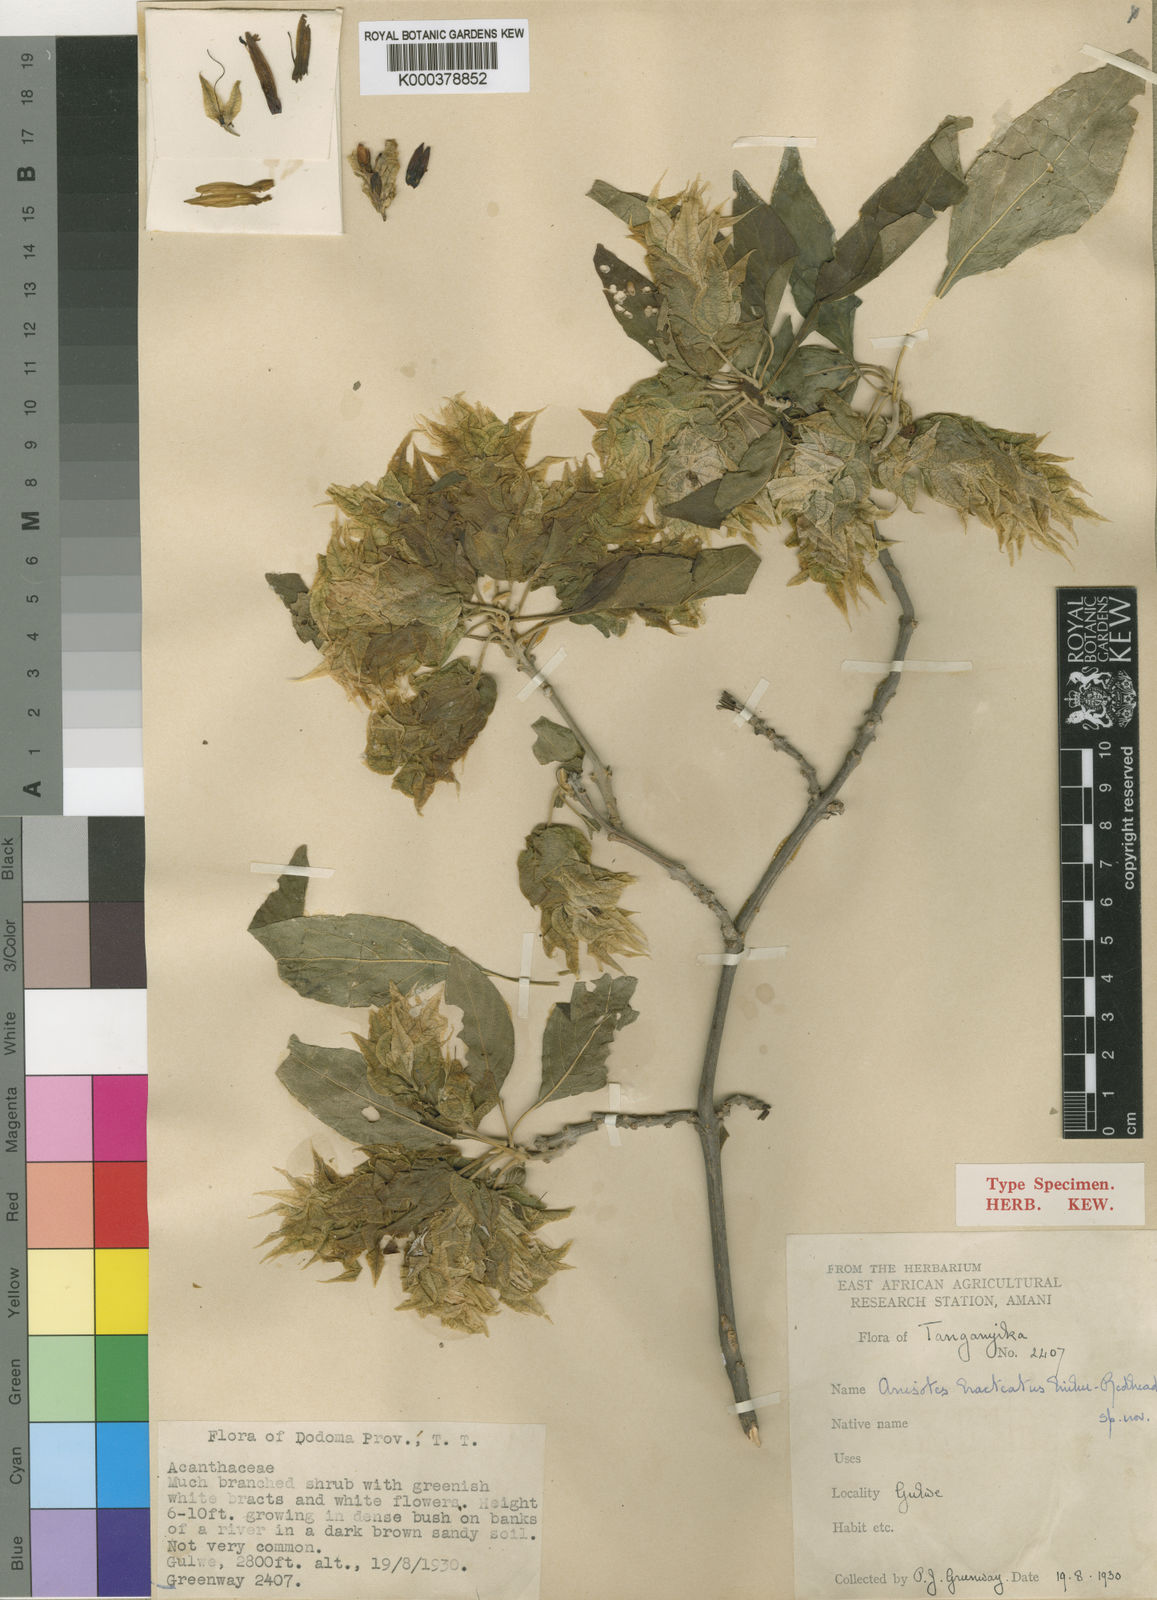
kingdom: Plantae
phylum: Tracheophyta
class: Magnoliopsida
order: Lamiales
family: Acanthaceae
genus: Anisotes
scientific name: Anisotes bracteatus
